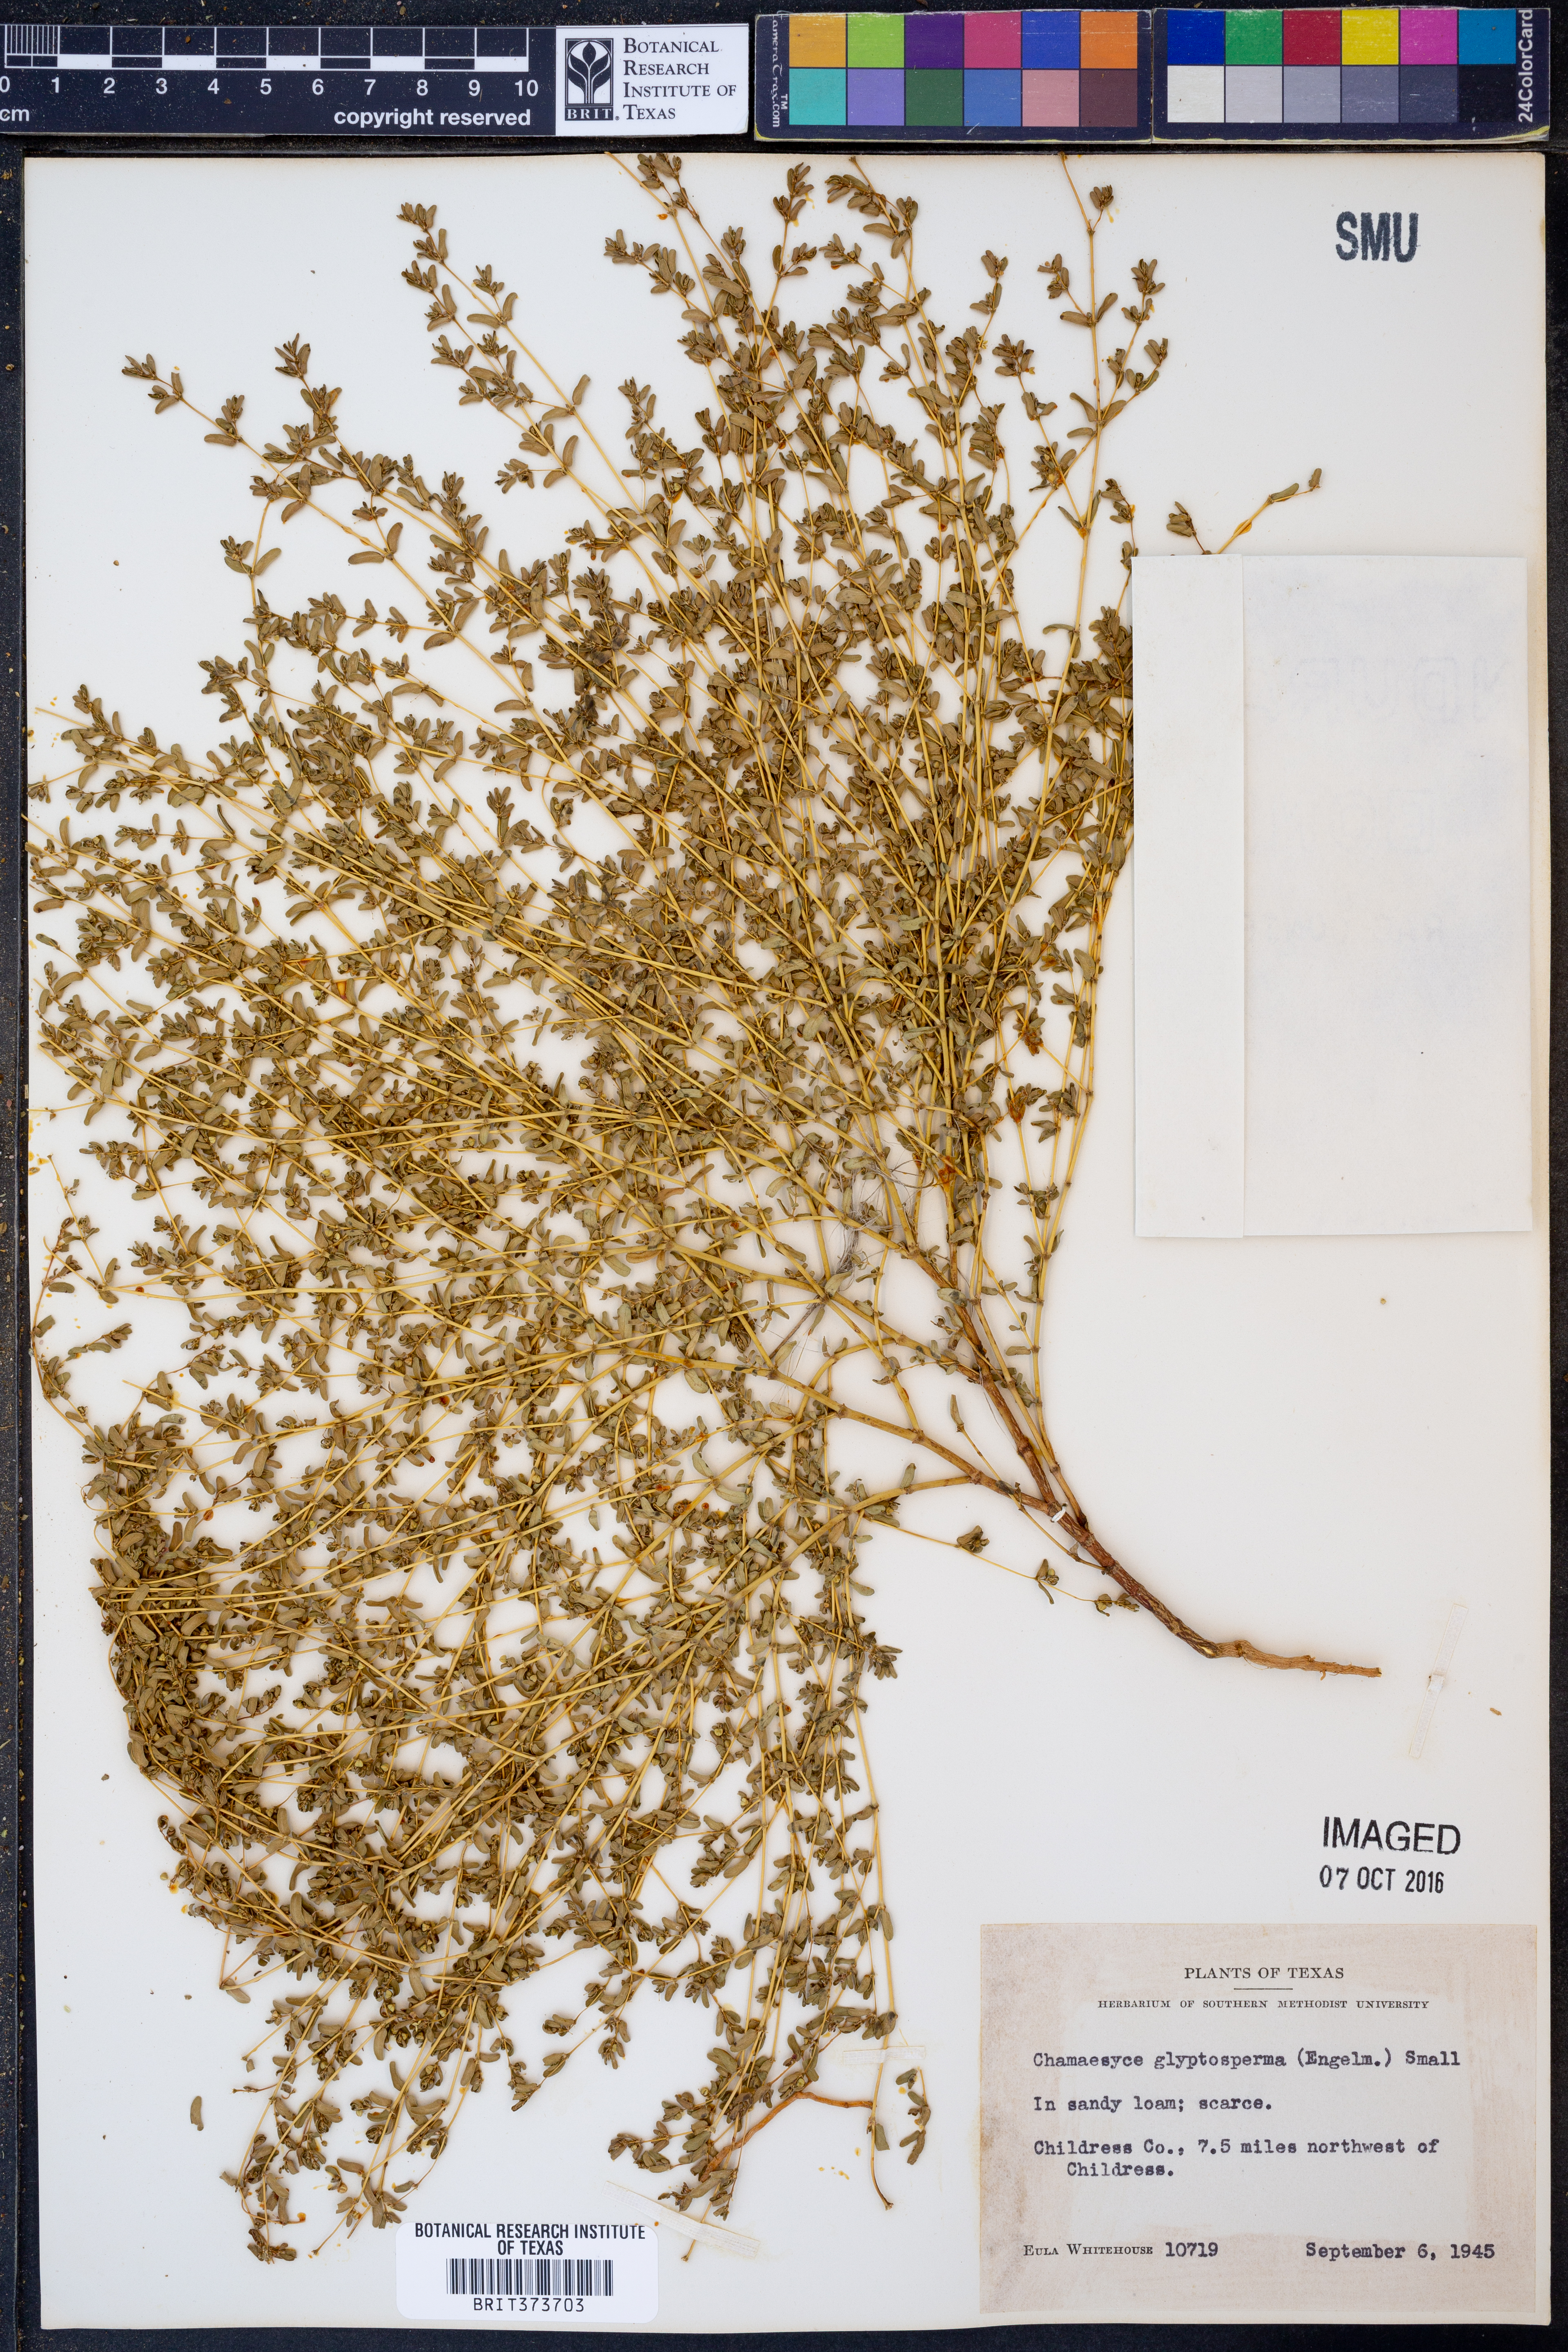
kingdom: Plantae
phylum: Tracheophyta
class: Magnoliopsida
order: Malpighiales
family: Euphorbiaceae
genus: Euphorbia
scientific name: Euphorbia glyptosperma
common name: Corrugate-seeded spurge
